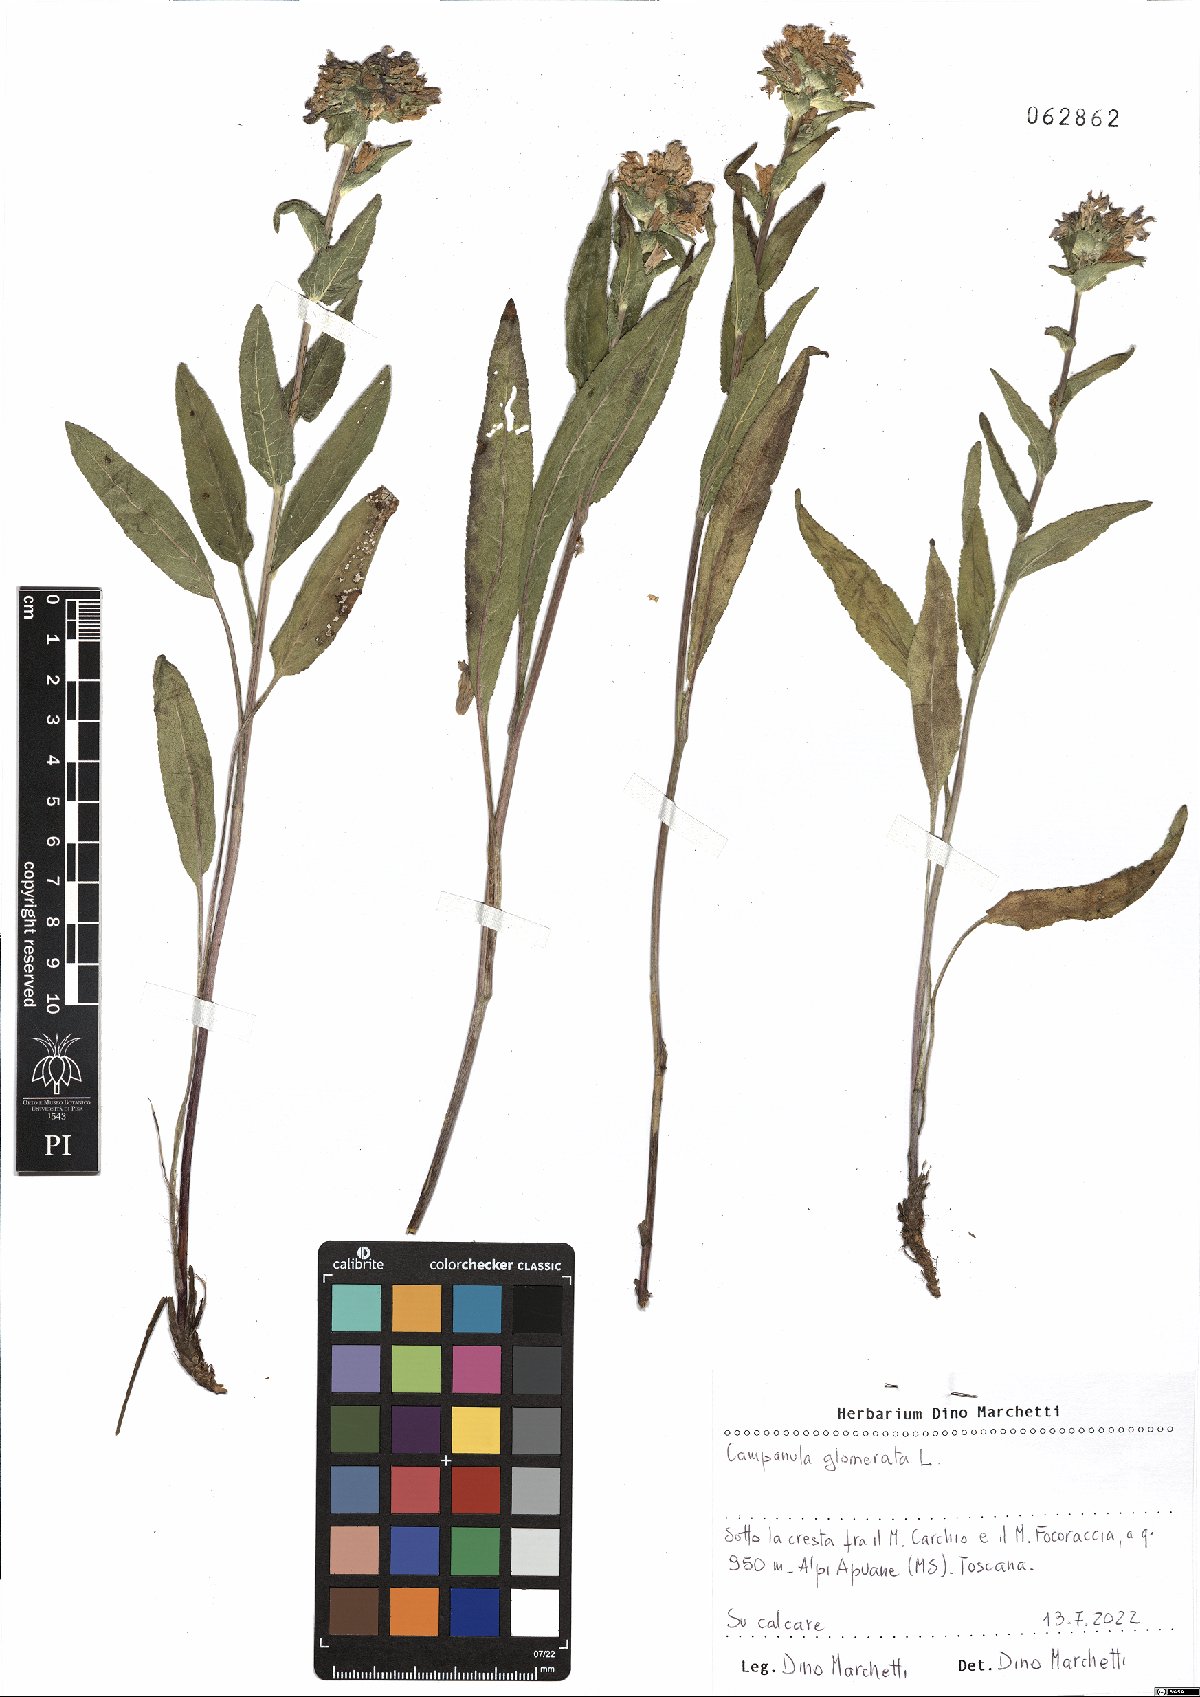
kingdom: Plantae
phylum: Tracheophyta
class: Magnoliopsida
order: Asterales
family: Campanulaceae
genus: Campanula
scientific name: Campanula glomerata
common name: Clustered bellflower
